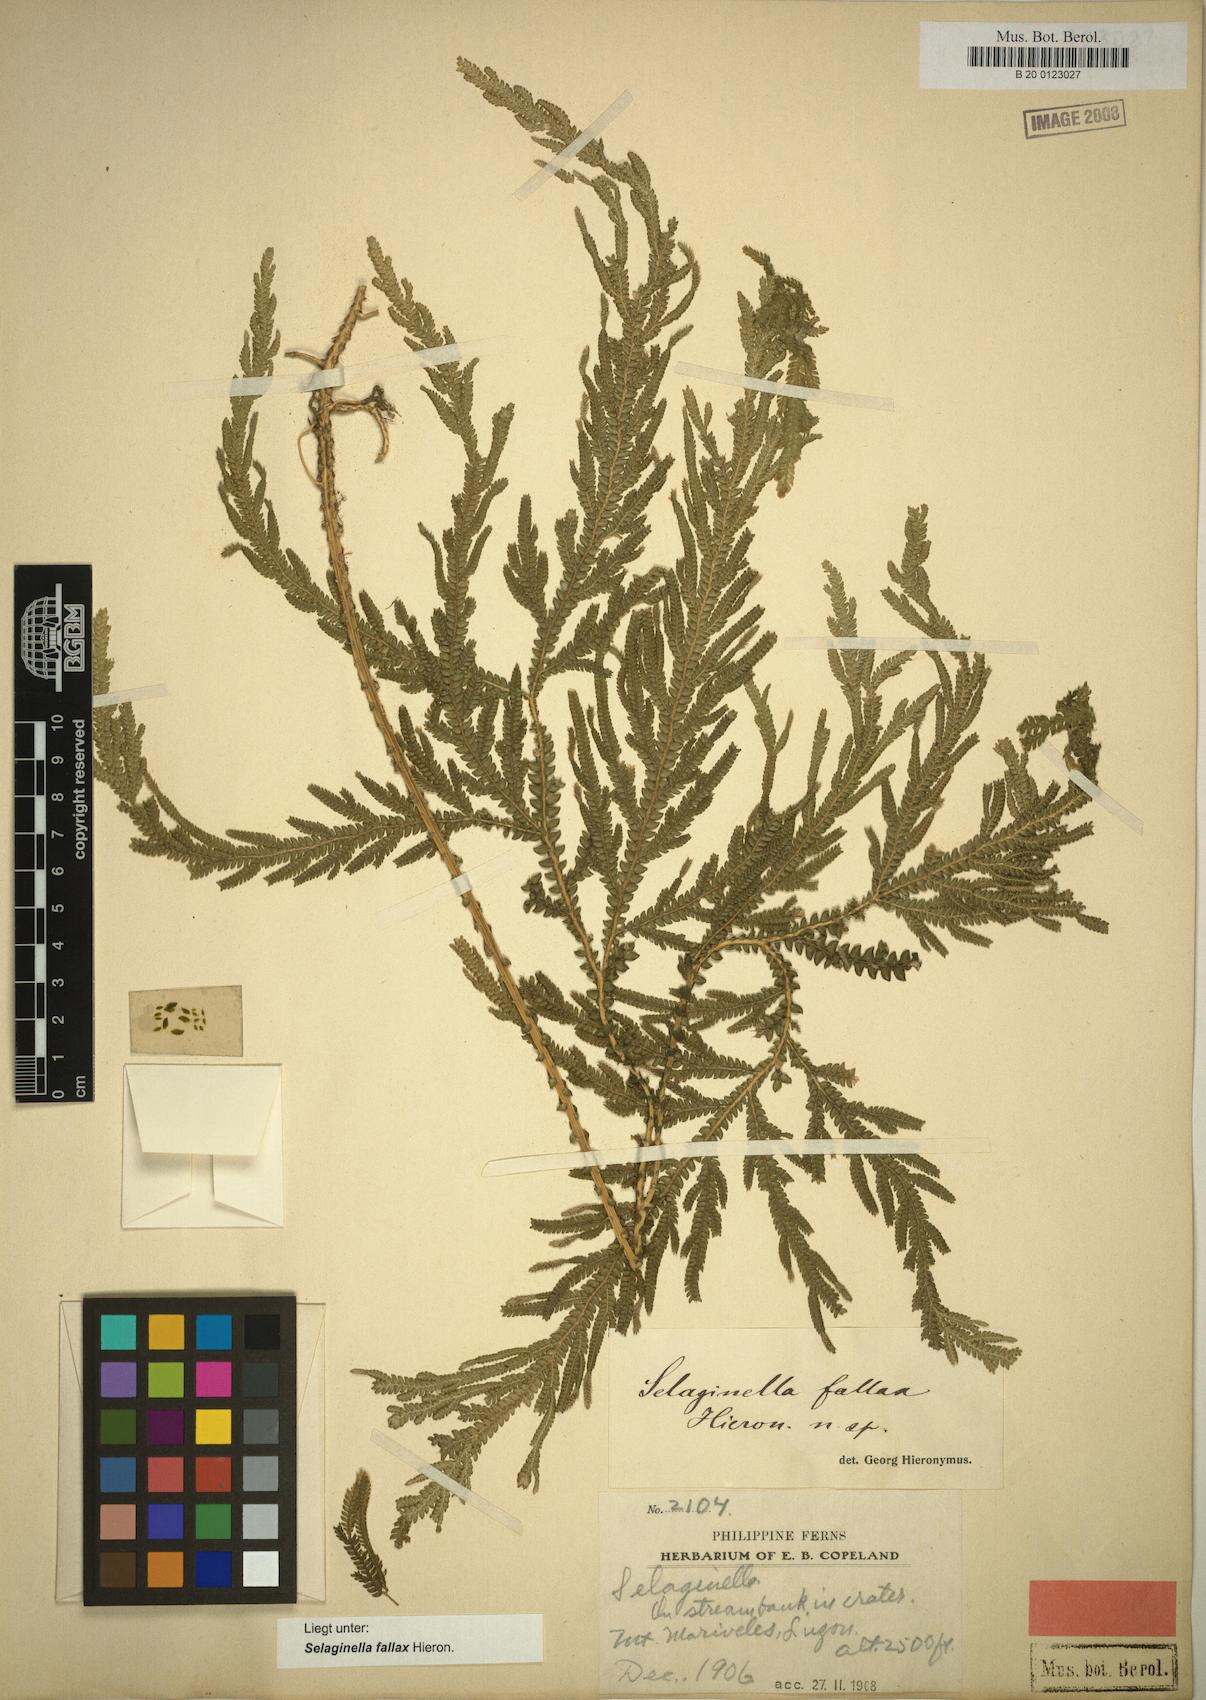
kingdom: Plantae
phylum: Tracheophyta
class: Lycopodiopsida
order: Selaginellales
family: Selaginellaceae
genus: Selaginella
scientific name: Selaginella jagorii
